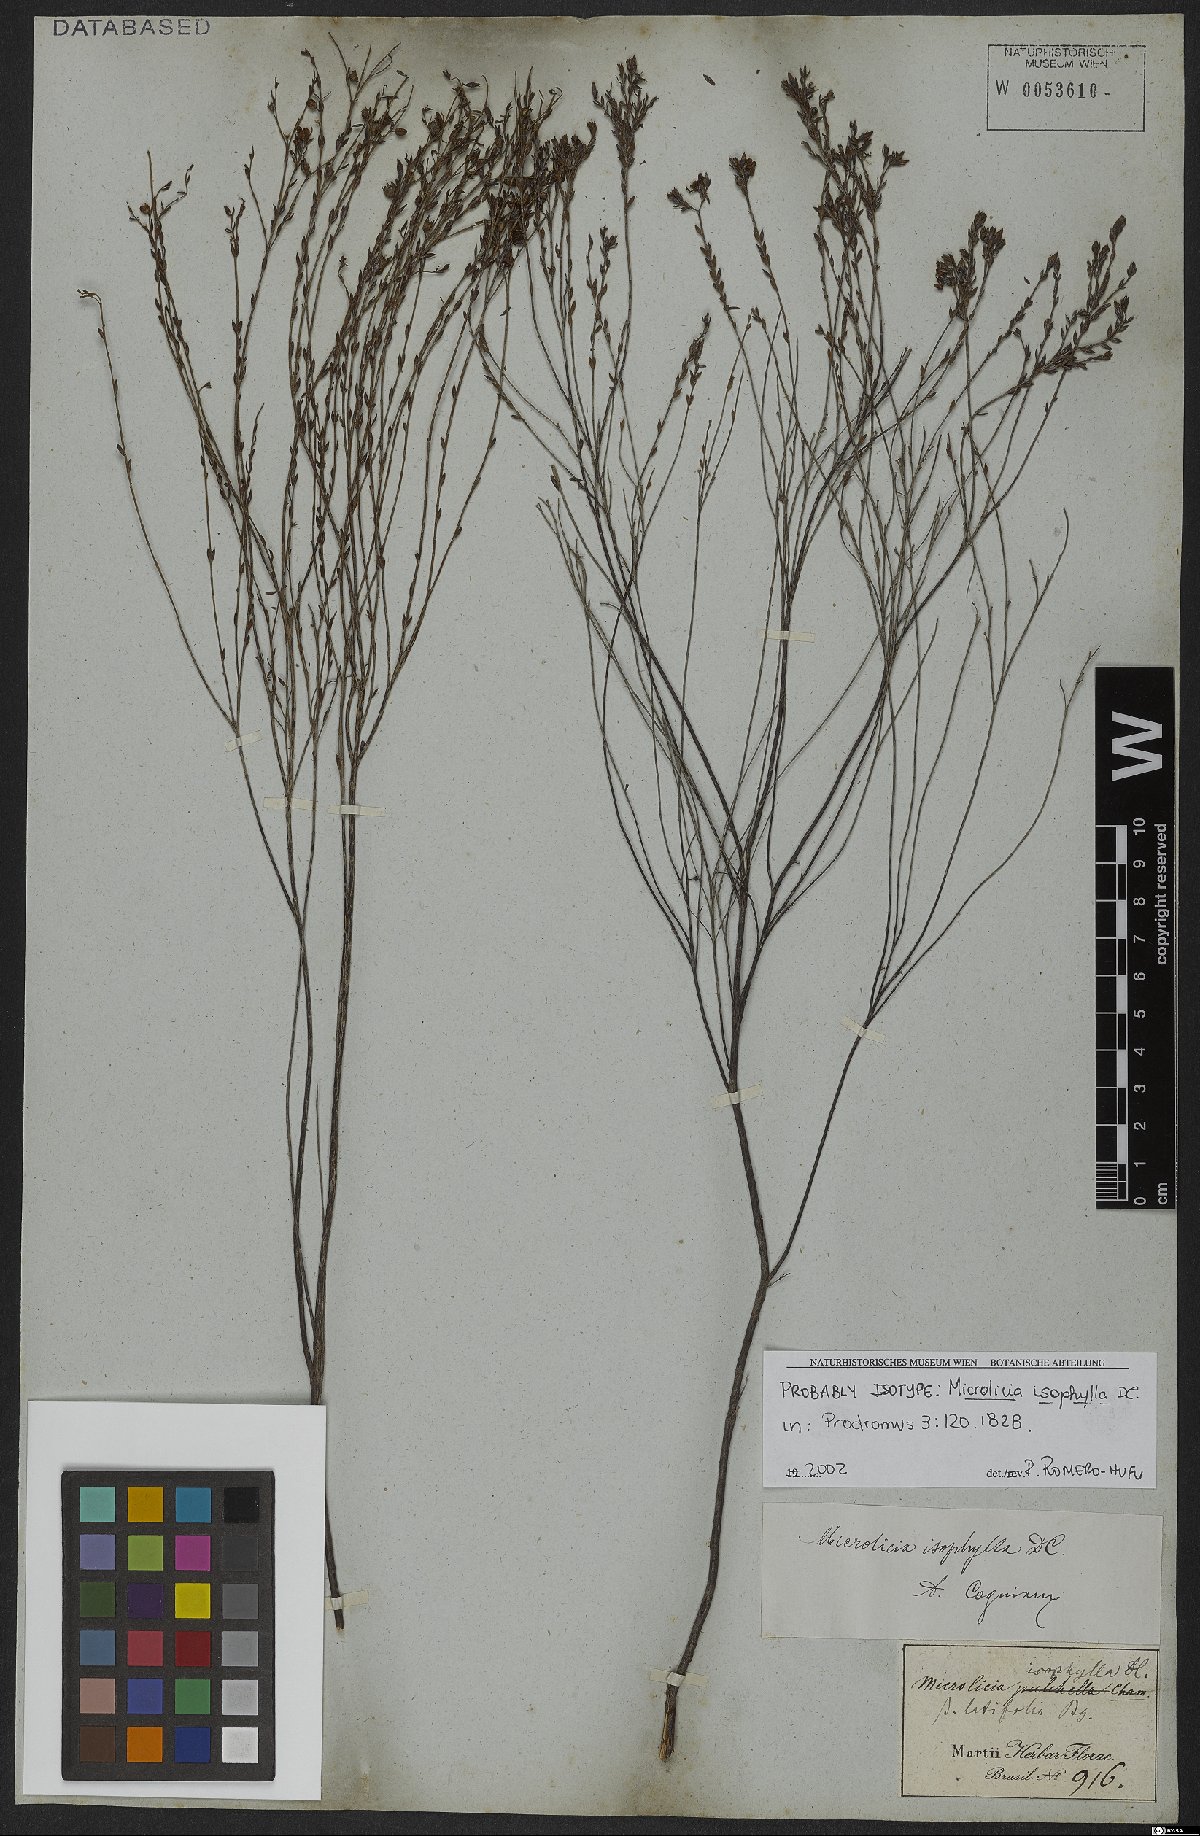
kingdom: Plantae
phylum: Tracheophyta
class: Magnoliopsida
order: Myrtales
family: Melastomataceae
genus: Microlicia
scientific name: Microlicia isophylla
